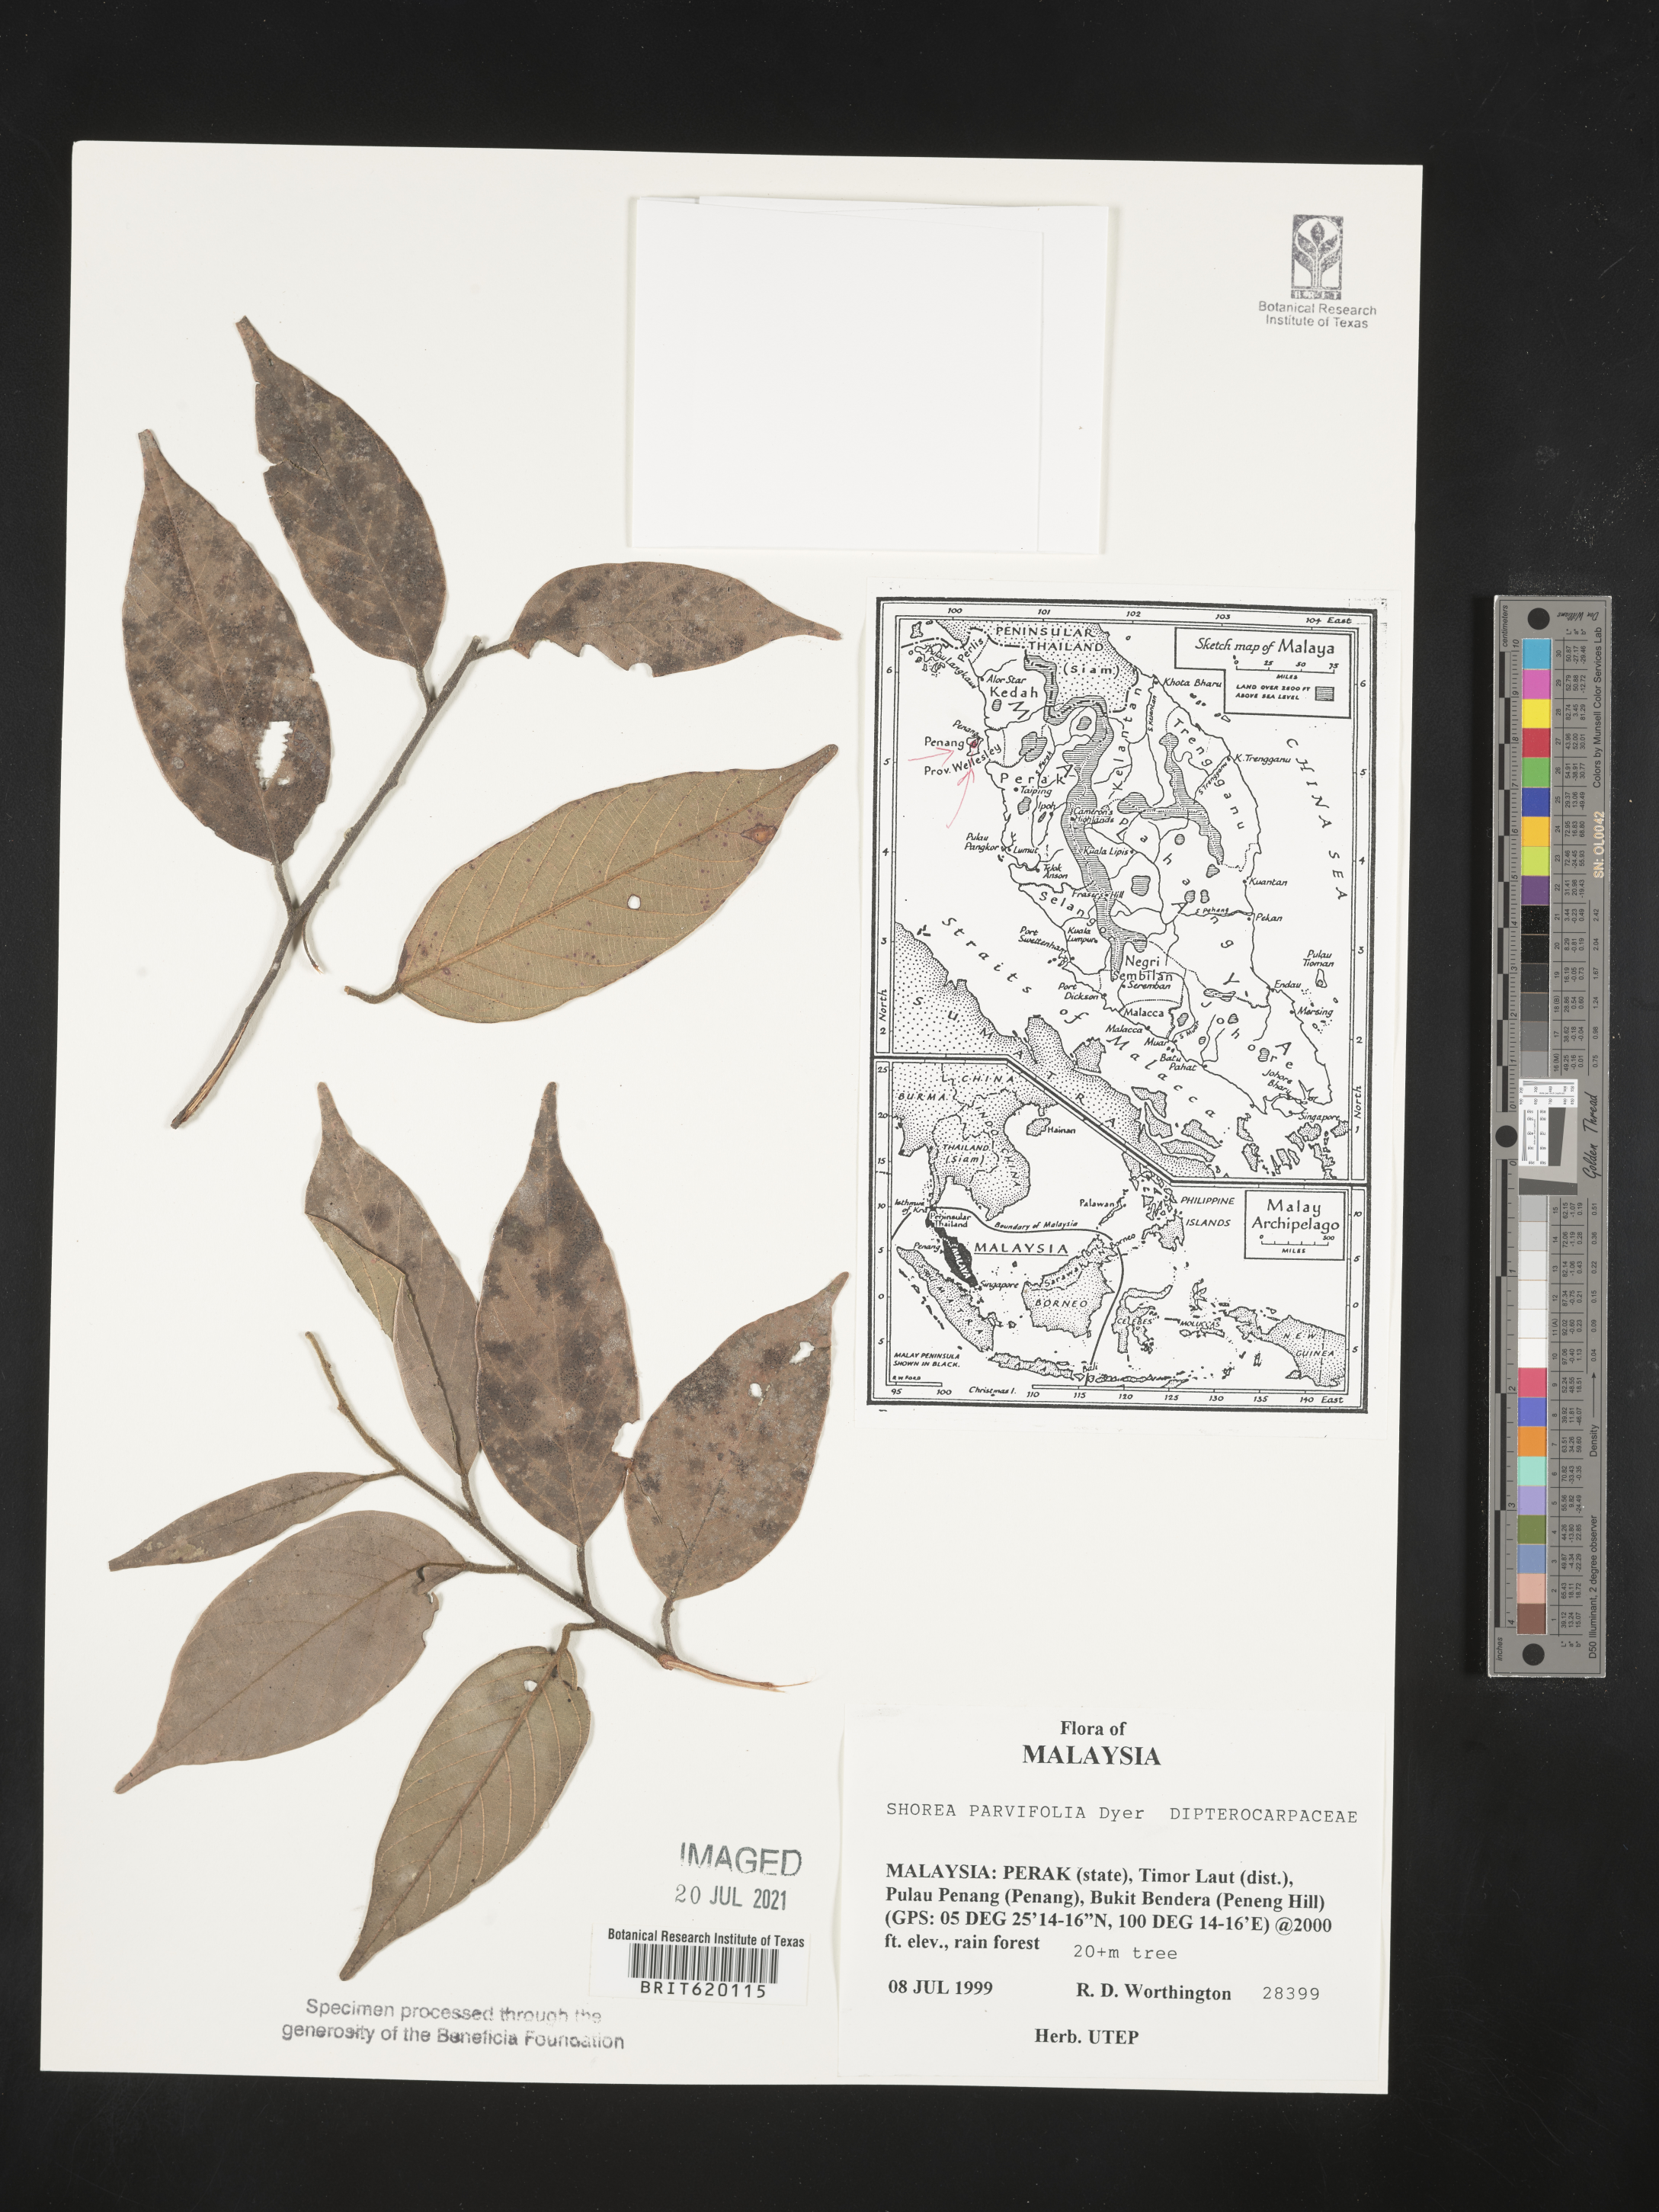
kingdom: Plantae
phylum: Tracheophyta
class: Magnoliopsida
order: Malvales
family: Dipterocarpaceae
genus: Shorea
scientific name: Shorea parvifolia
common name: Light red meranti
